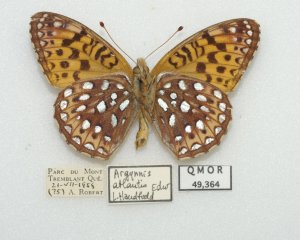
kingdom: Animalia
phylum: Arthropoda
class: Insecta
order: Lepidoptera
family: Nymphalidae
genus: Speyeria
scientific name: Speyeria atlantis
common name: Atlantis Fritillary
